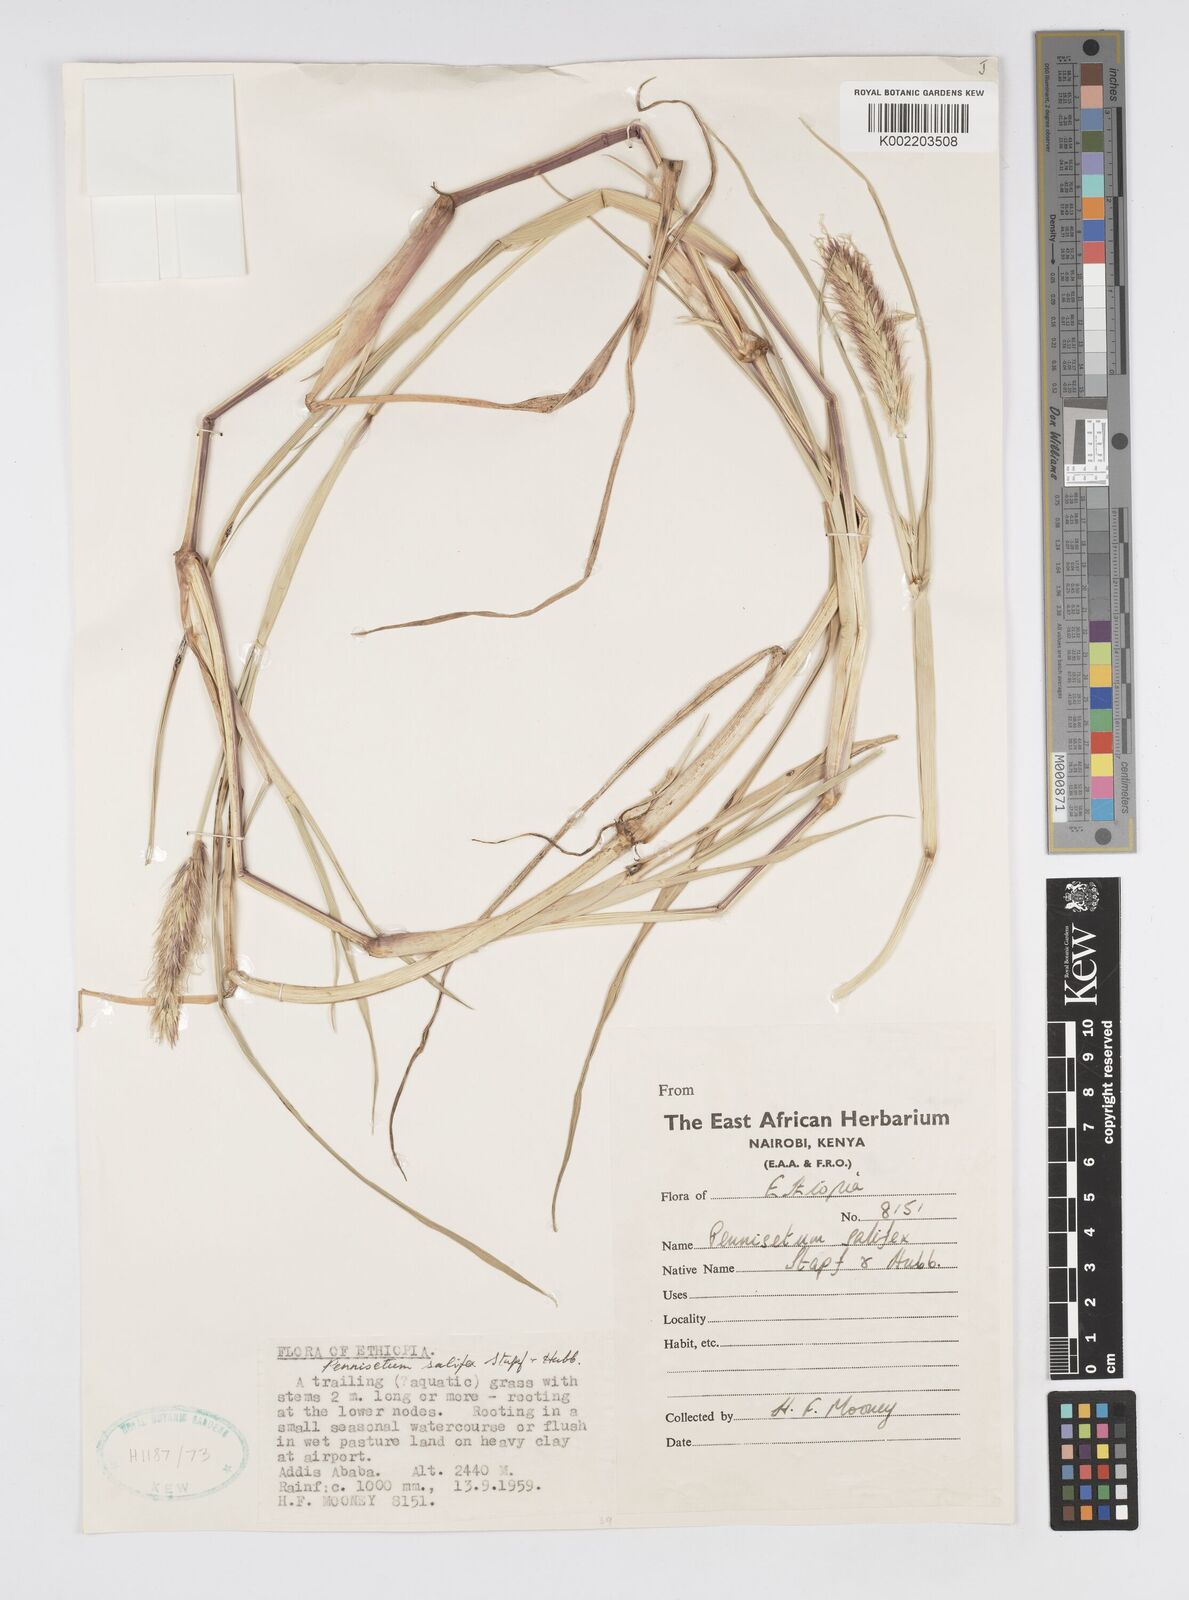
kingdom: Plantae
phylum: Tracheophyta
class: Liliopsida
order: Poales
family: Poaceae
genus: Cenchrus
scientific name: Cenchrus riparius
